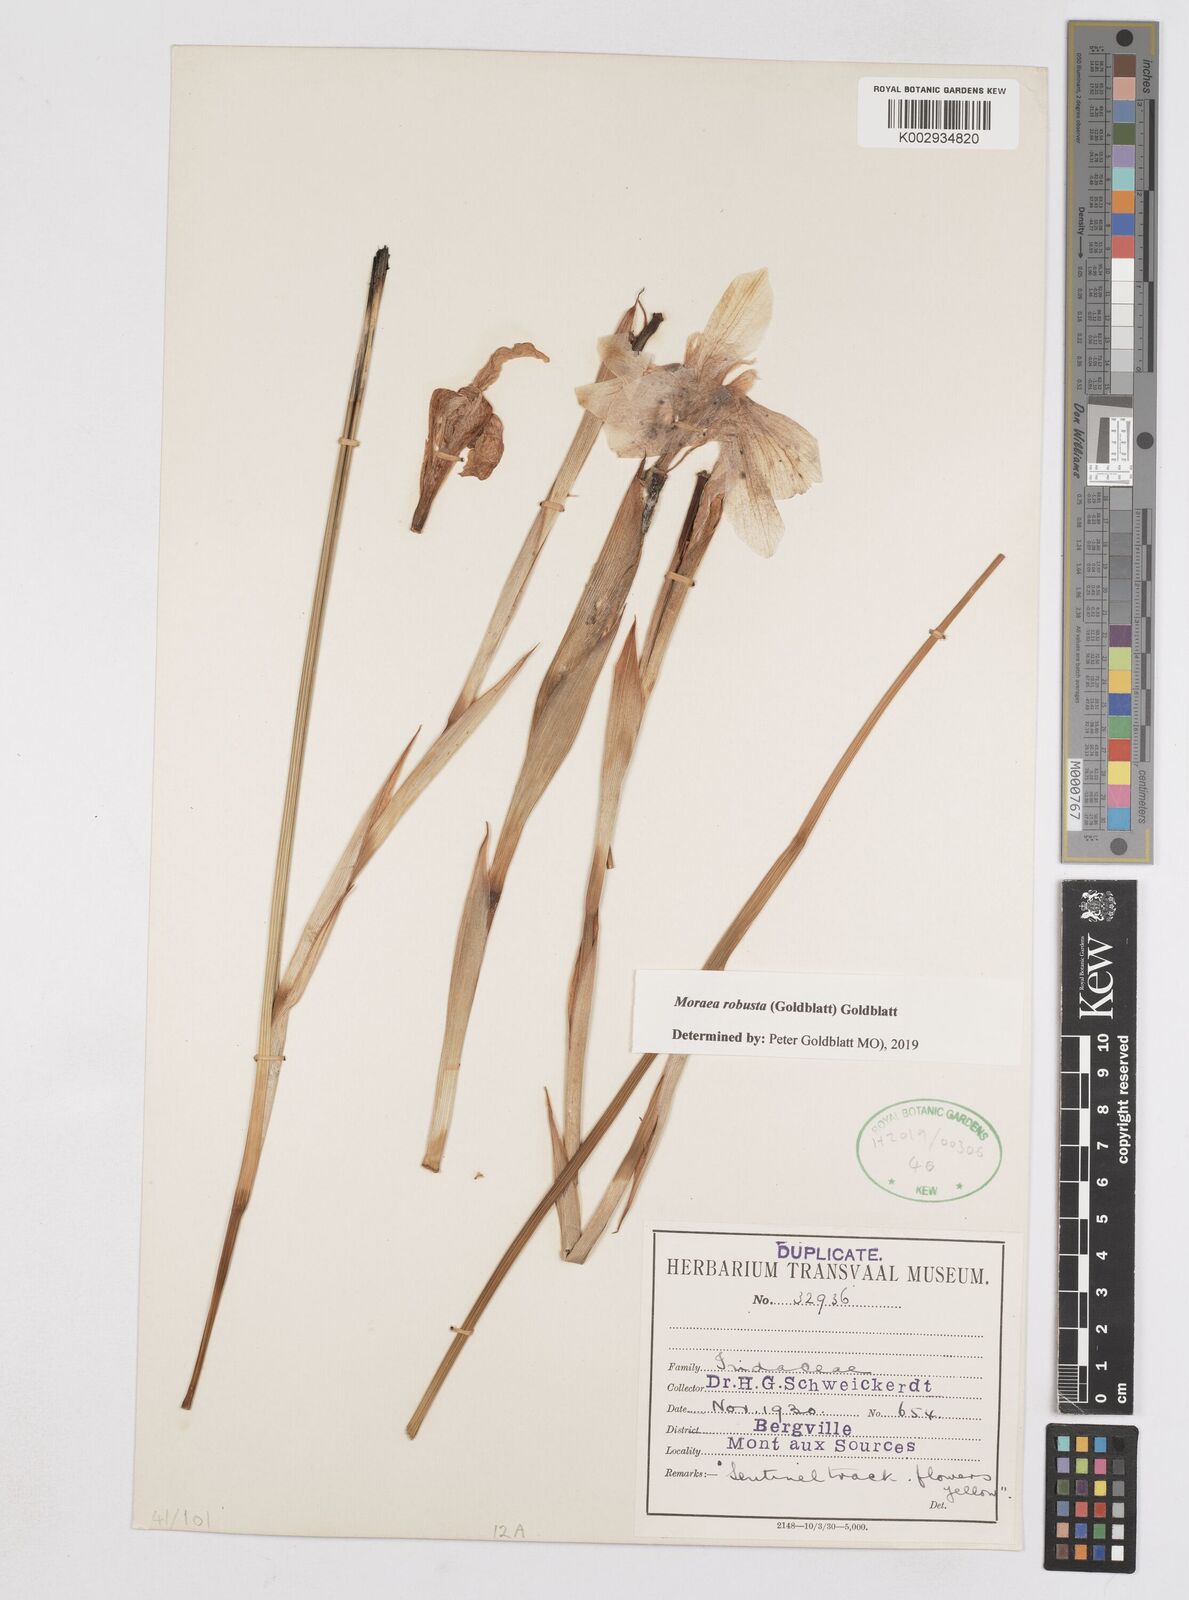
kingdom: Plantae
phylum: Tracheophyta
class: Liliopsida
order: Asparagales
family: Iridaceae
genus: Moraea
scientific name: Moraea robusta
